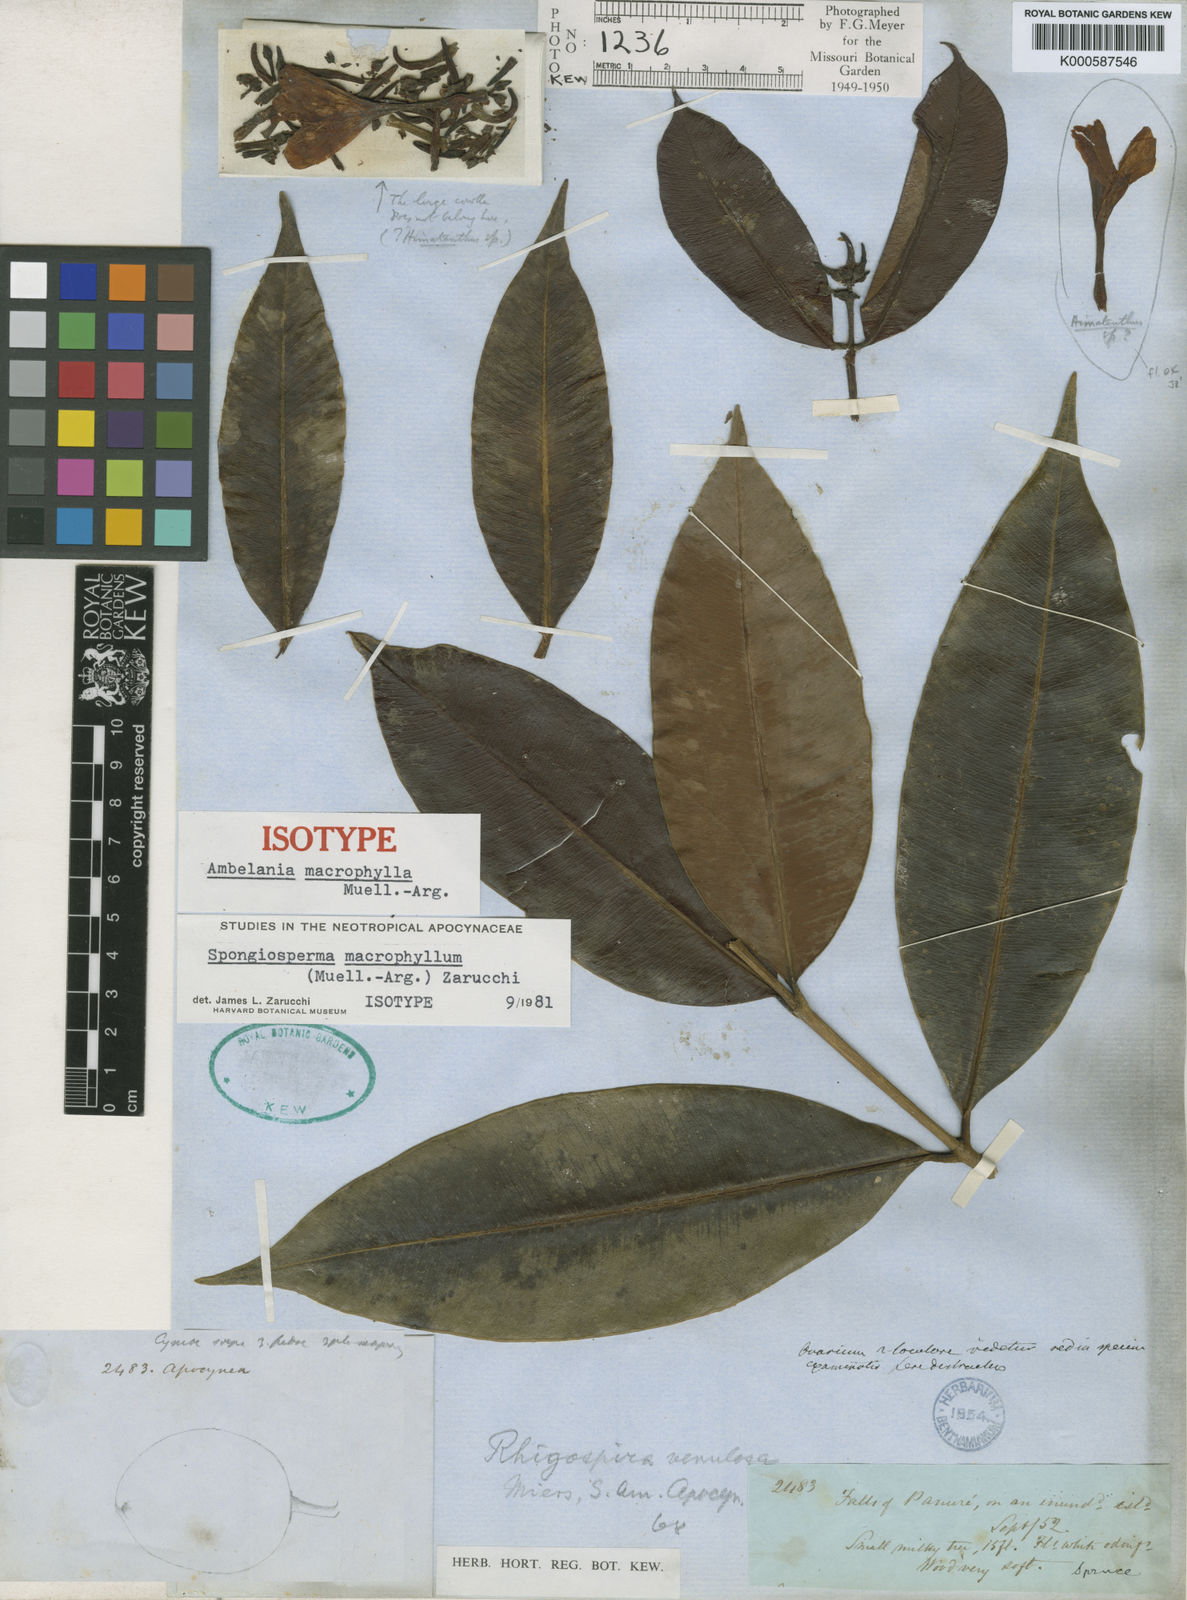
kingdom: Plantae
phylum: Tracheophyta
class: Magnoliopsida
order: Gentianales
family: Apocynaceae
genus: Ambelania
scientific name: Ambelania
